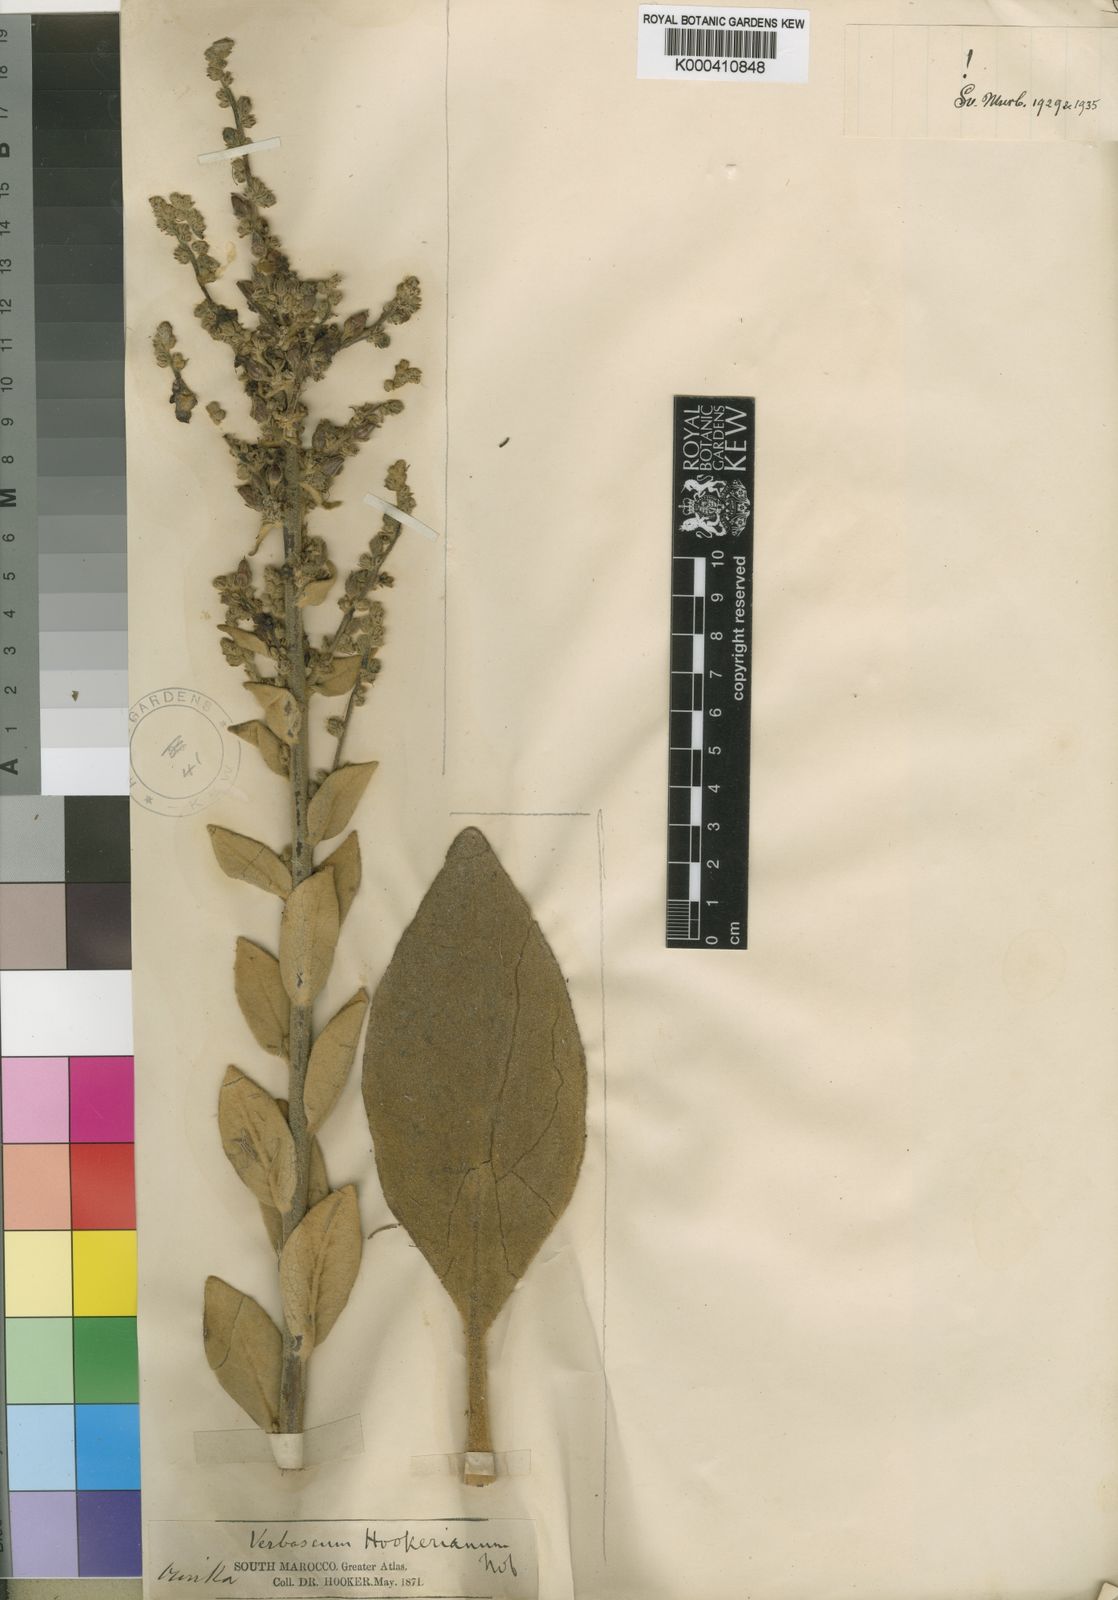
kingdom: Plantae
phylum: Tracheophyta
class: Magnoliopsida
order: Lamiales
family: Scrophulariaceae
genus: Verbascum
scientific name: Verbascum hookerianum
